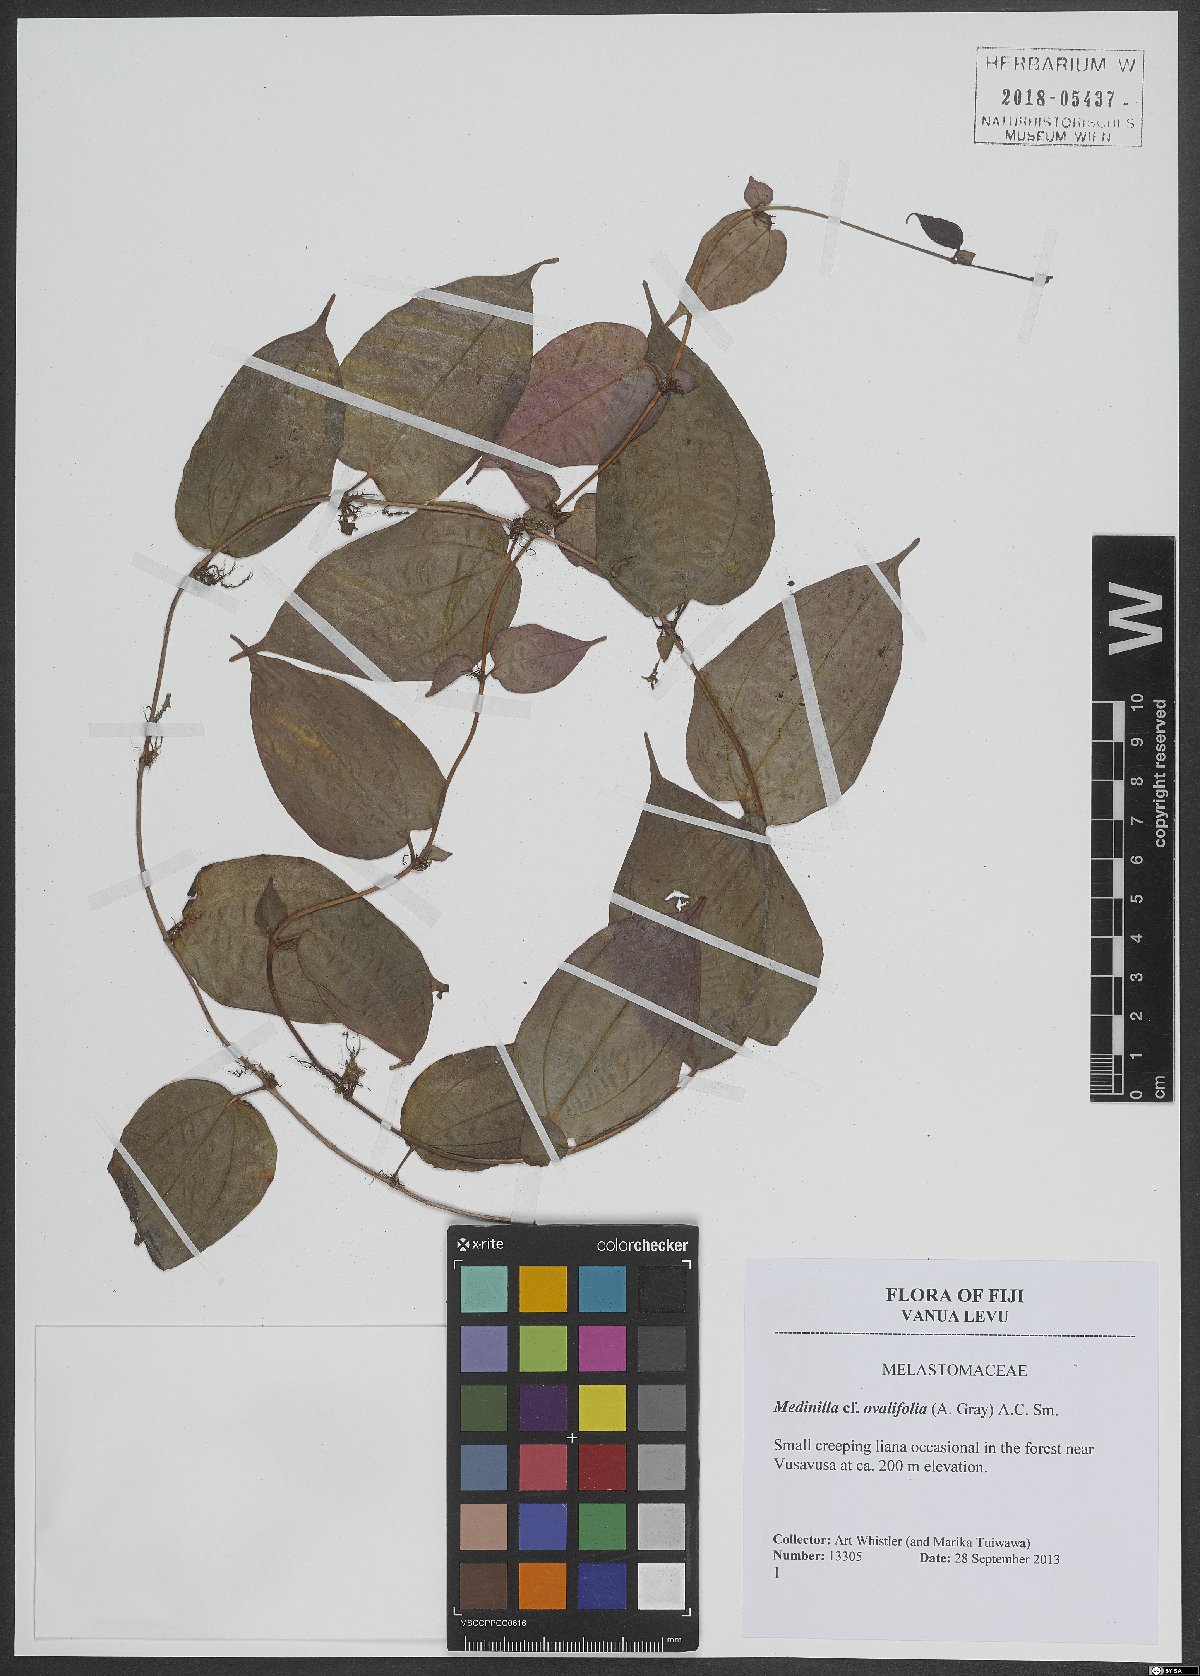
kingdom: Plantae
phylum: Tracheophyta
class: Magnoliopsida
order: Myrtales
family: Melastomataceae
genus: Medinilla
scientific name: Medinilla ovalifolia
